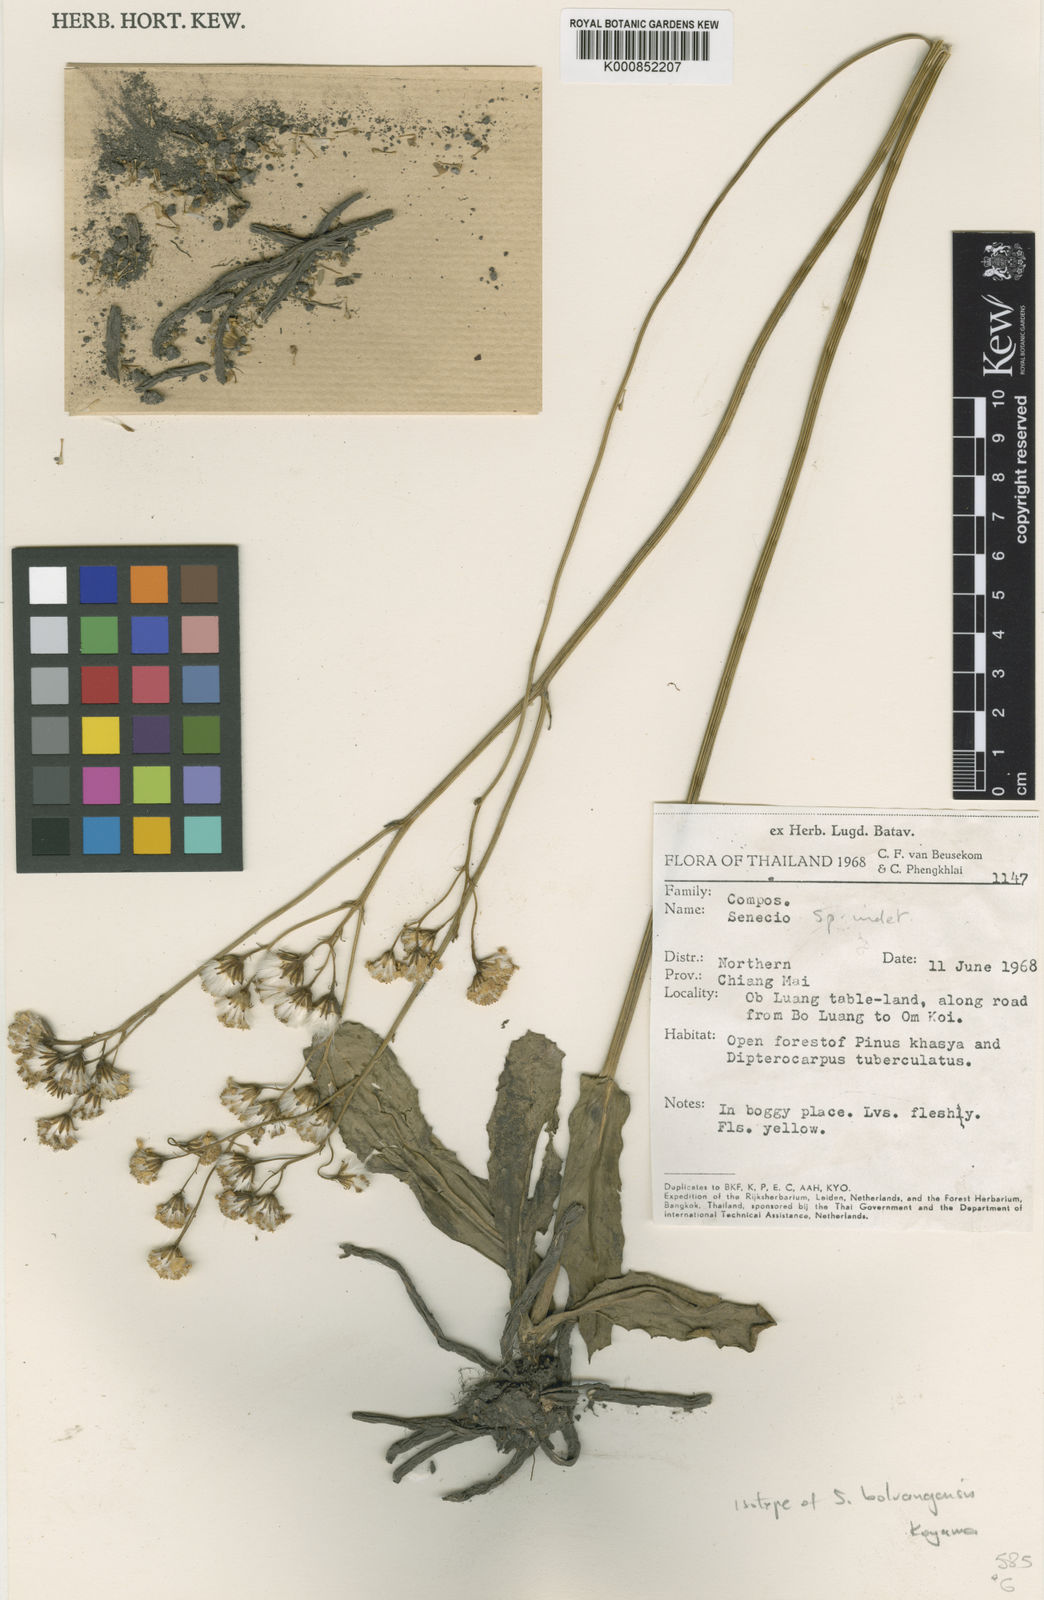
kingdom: Plantae
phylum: Tracheophyta
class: Magnoliopsida
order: Asterales
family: Asteraceae
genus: Senecio
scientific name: Senecio boluangensis
